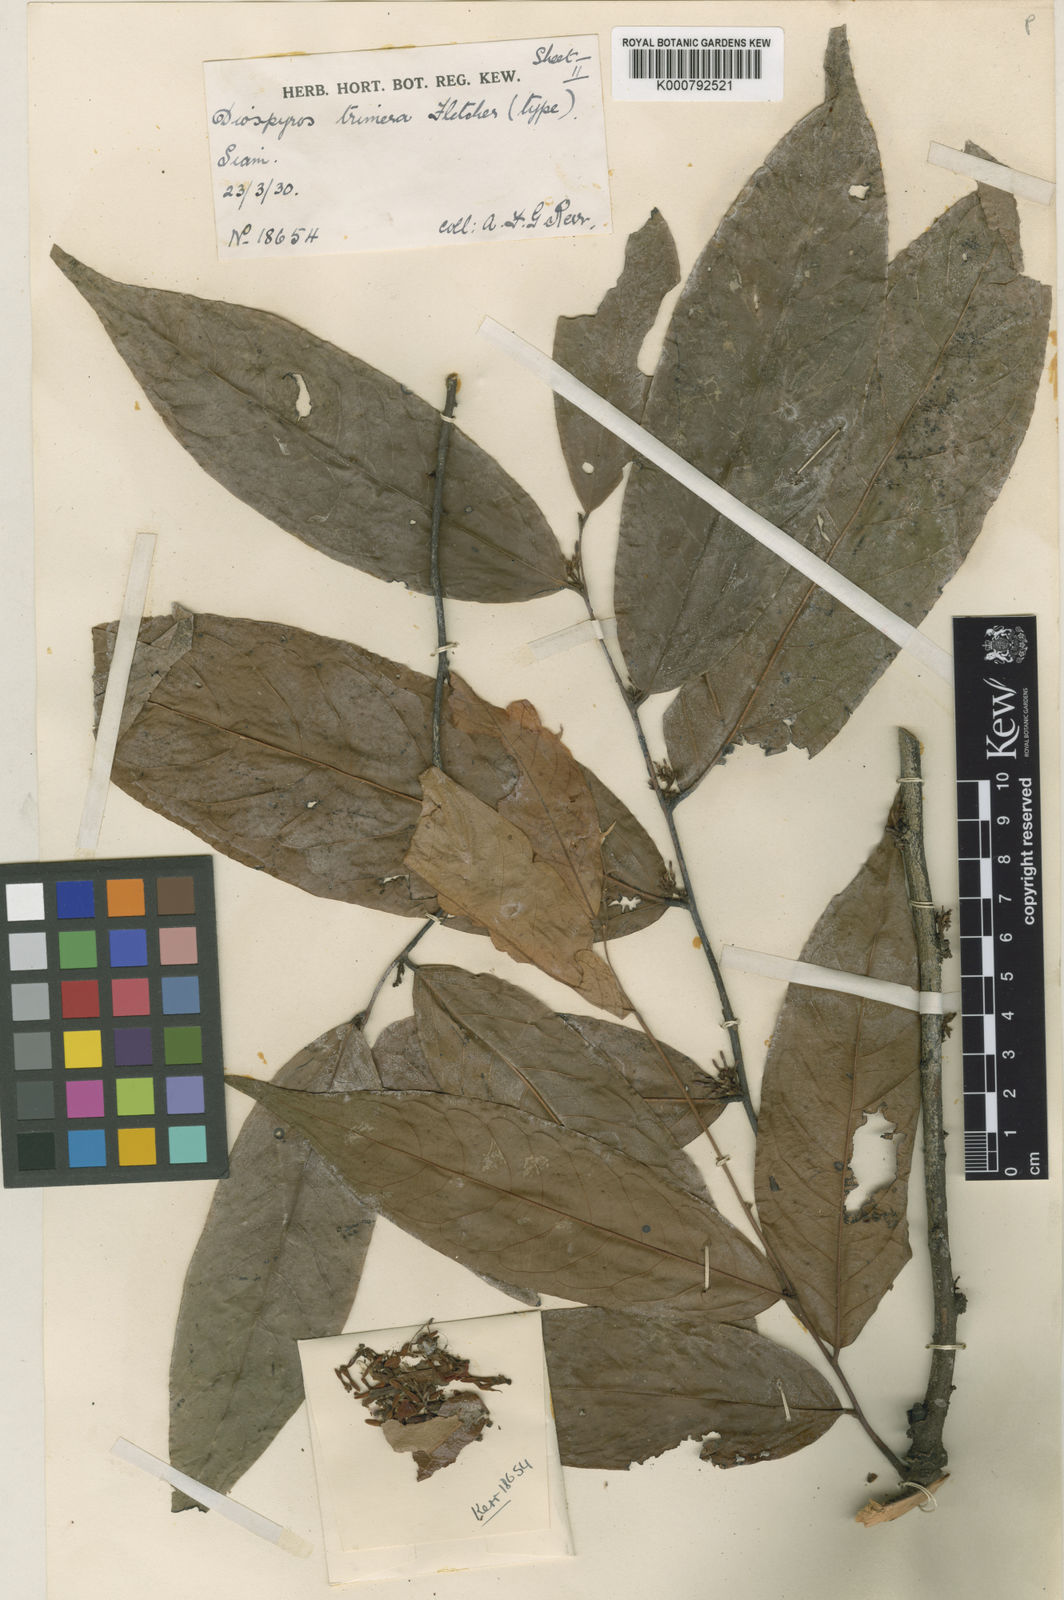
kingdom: Plantae
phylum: Tracheophyta
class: Magnoliopsida
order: Ericales
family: Ebenaceae
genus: Diospyros
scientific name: Diospyros andamanica
